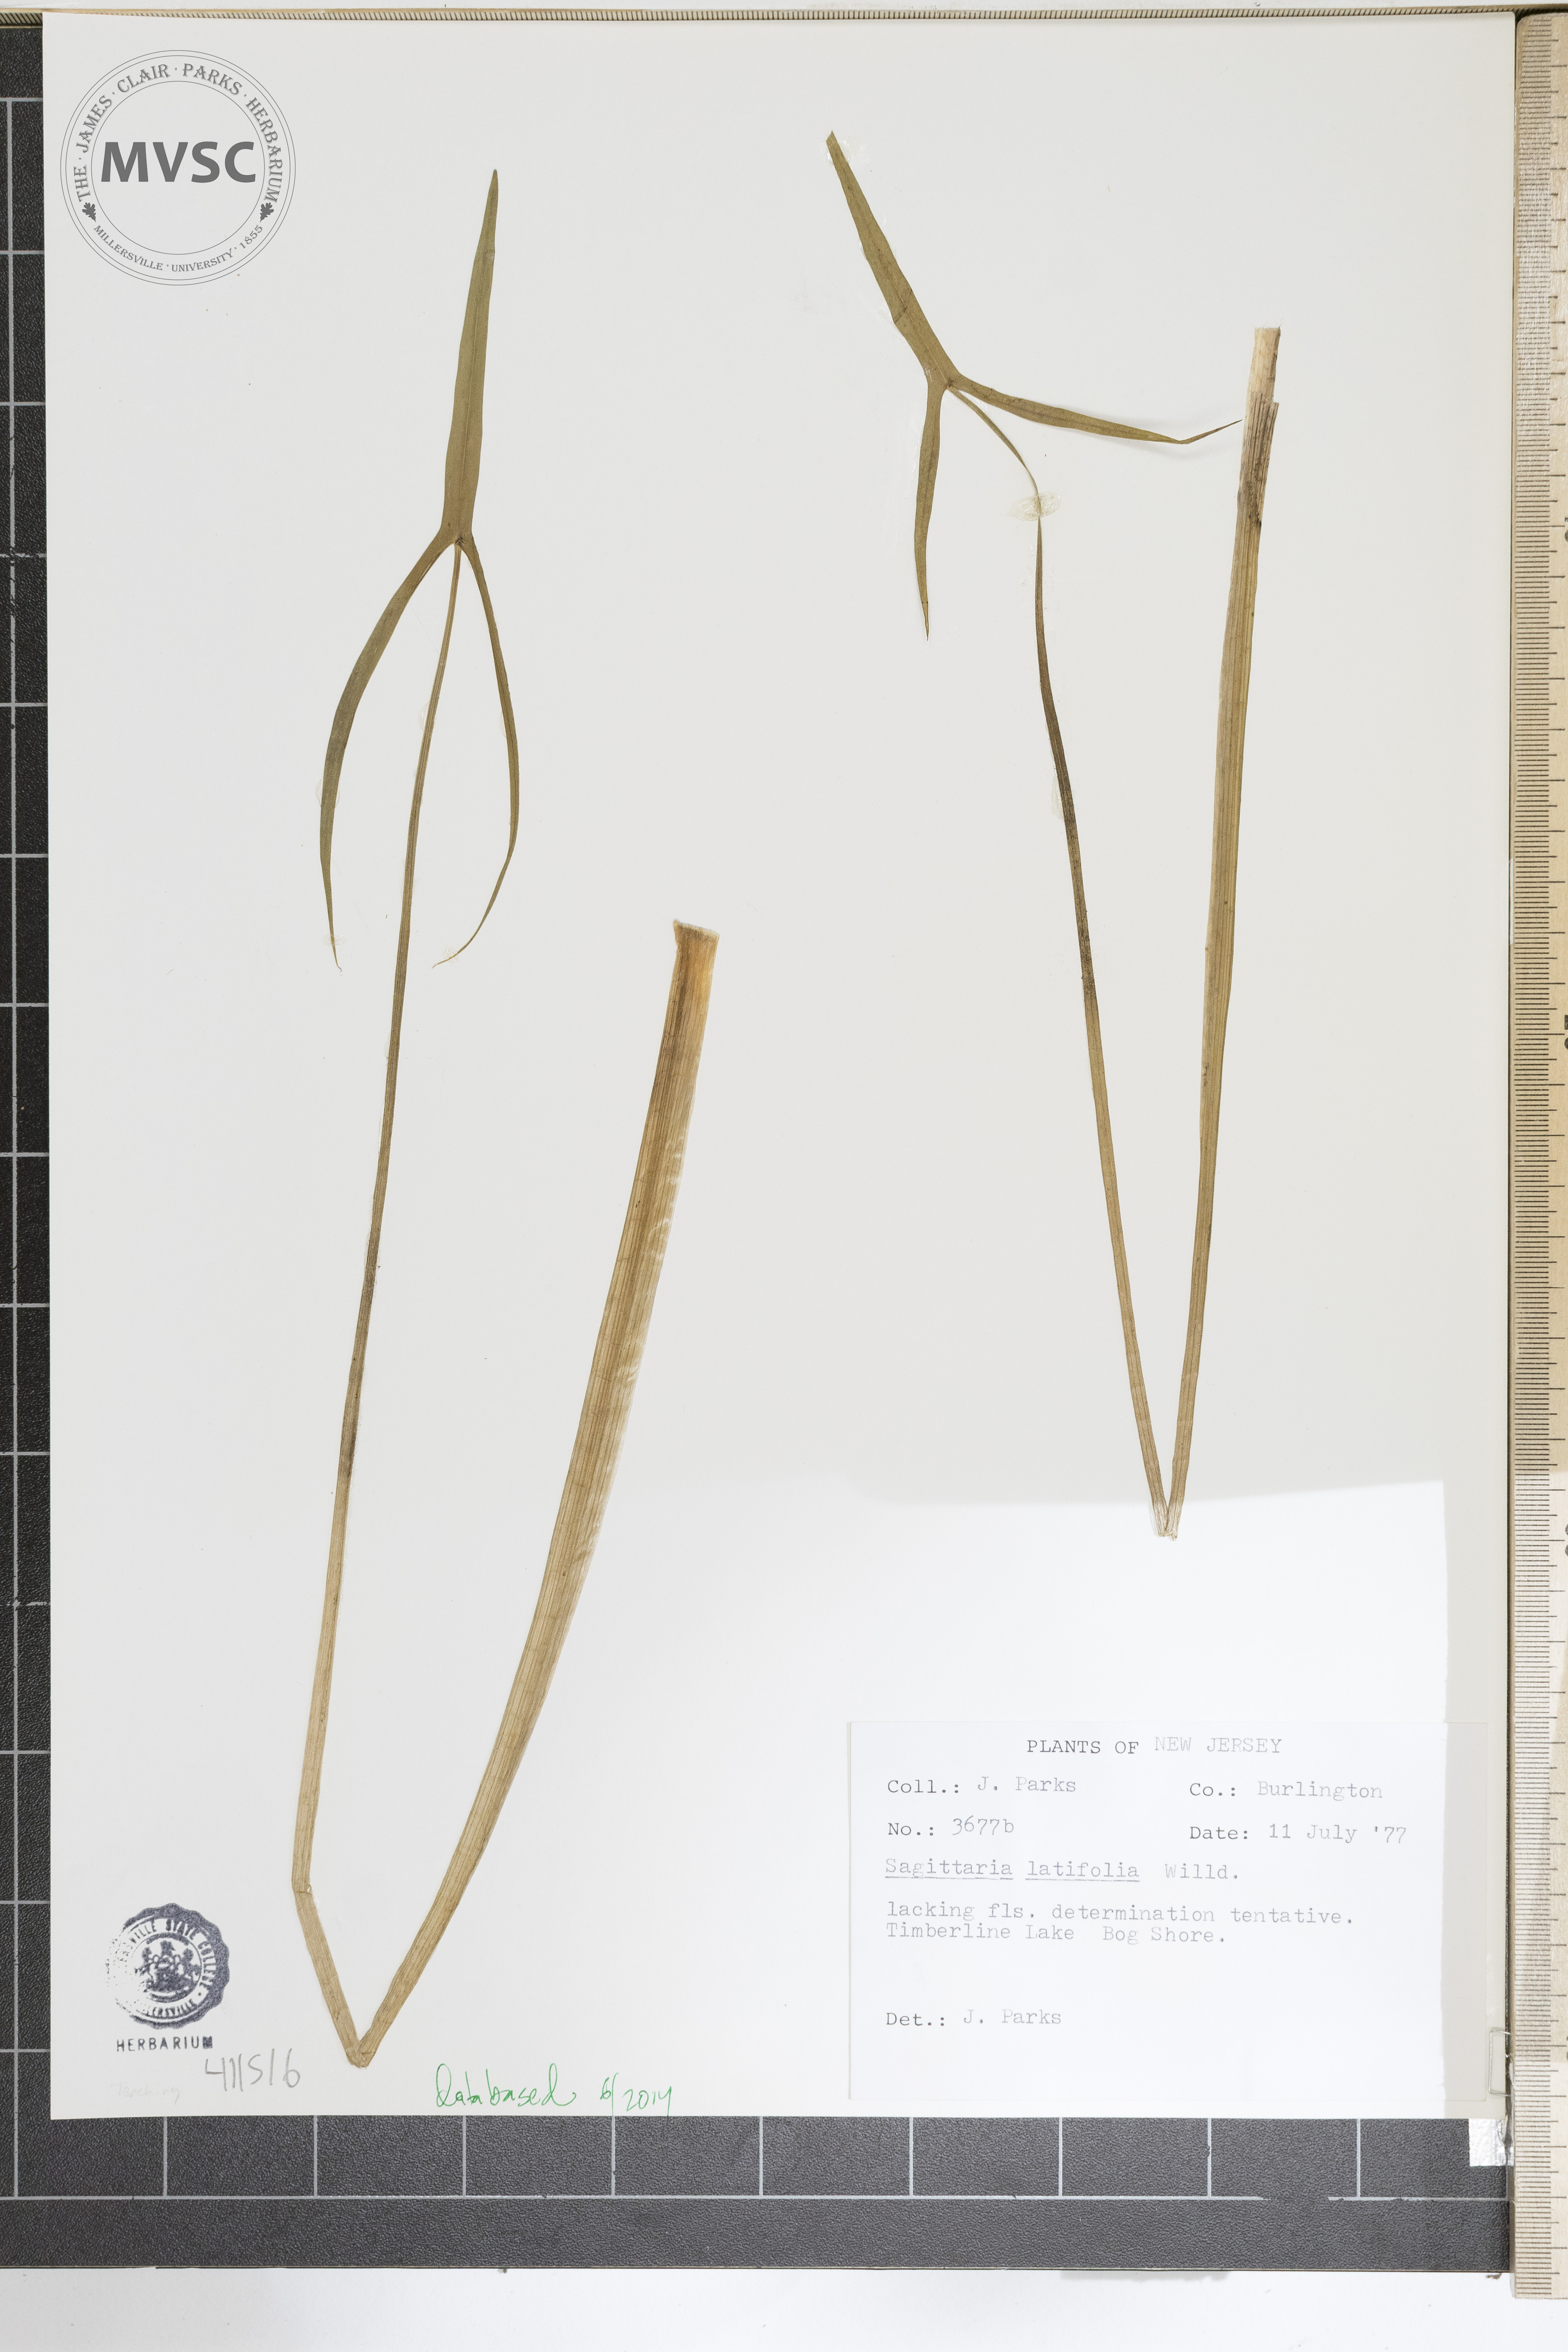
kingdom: Plantae
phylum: Tracheophyta
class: Liliopsida
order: Alismatales
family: Alismataceae
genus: Sagittaria
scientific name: Sagittaria latifolia
